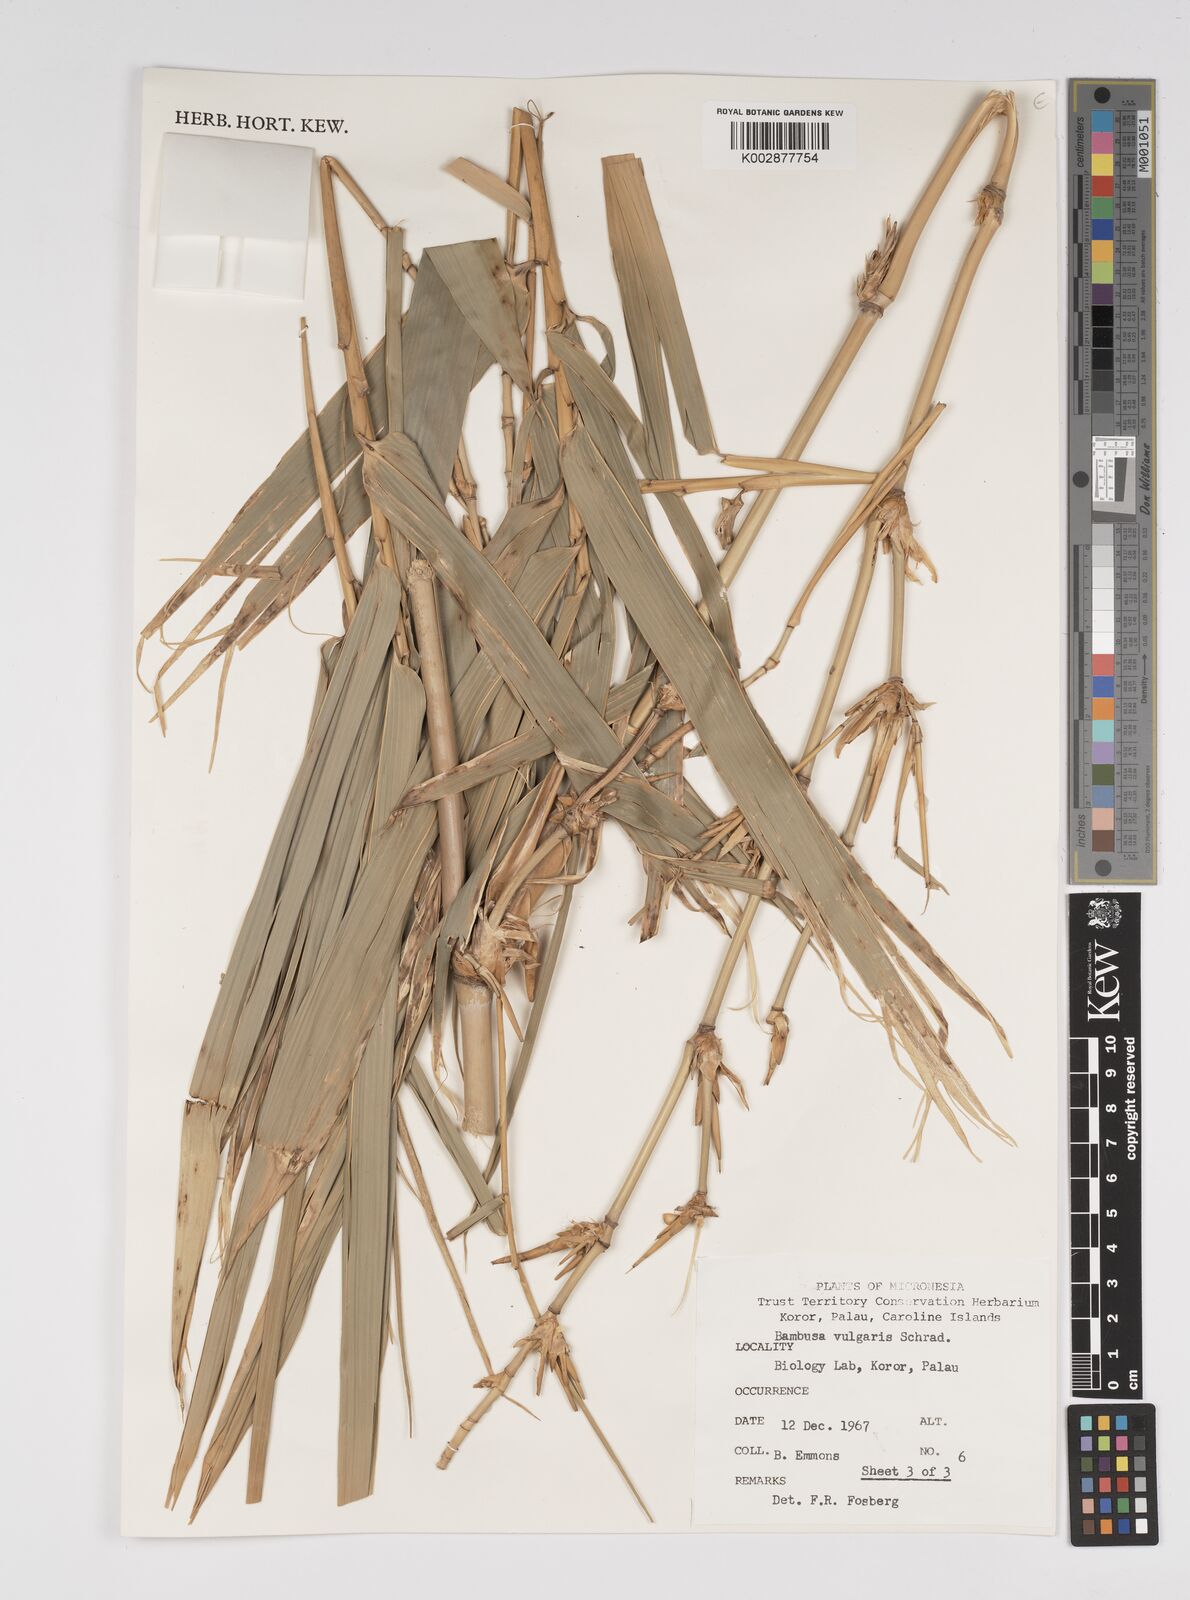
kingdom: Plantae
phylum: Tracheophyta
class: Liliopsida
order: Poales
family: Poaceae
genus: Bambusa
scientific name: Bambusa
